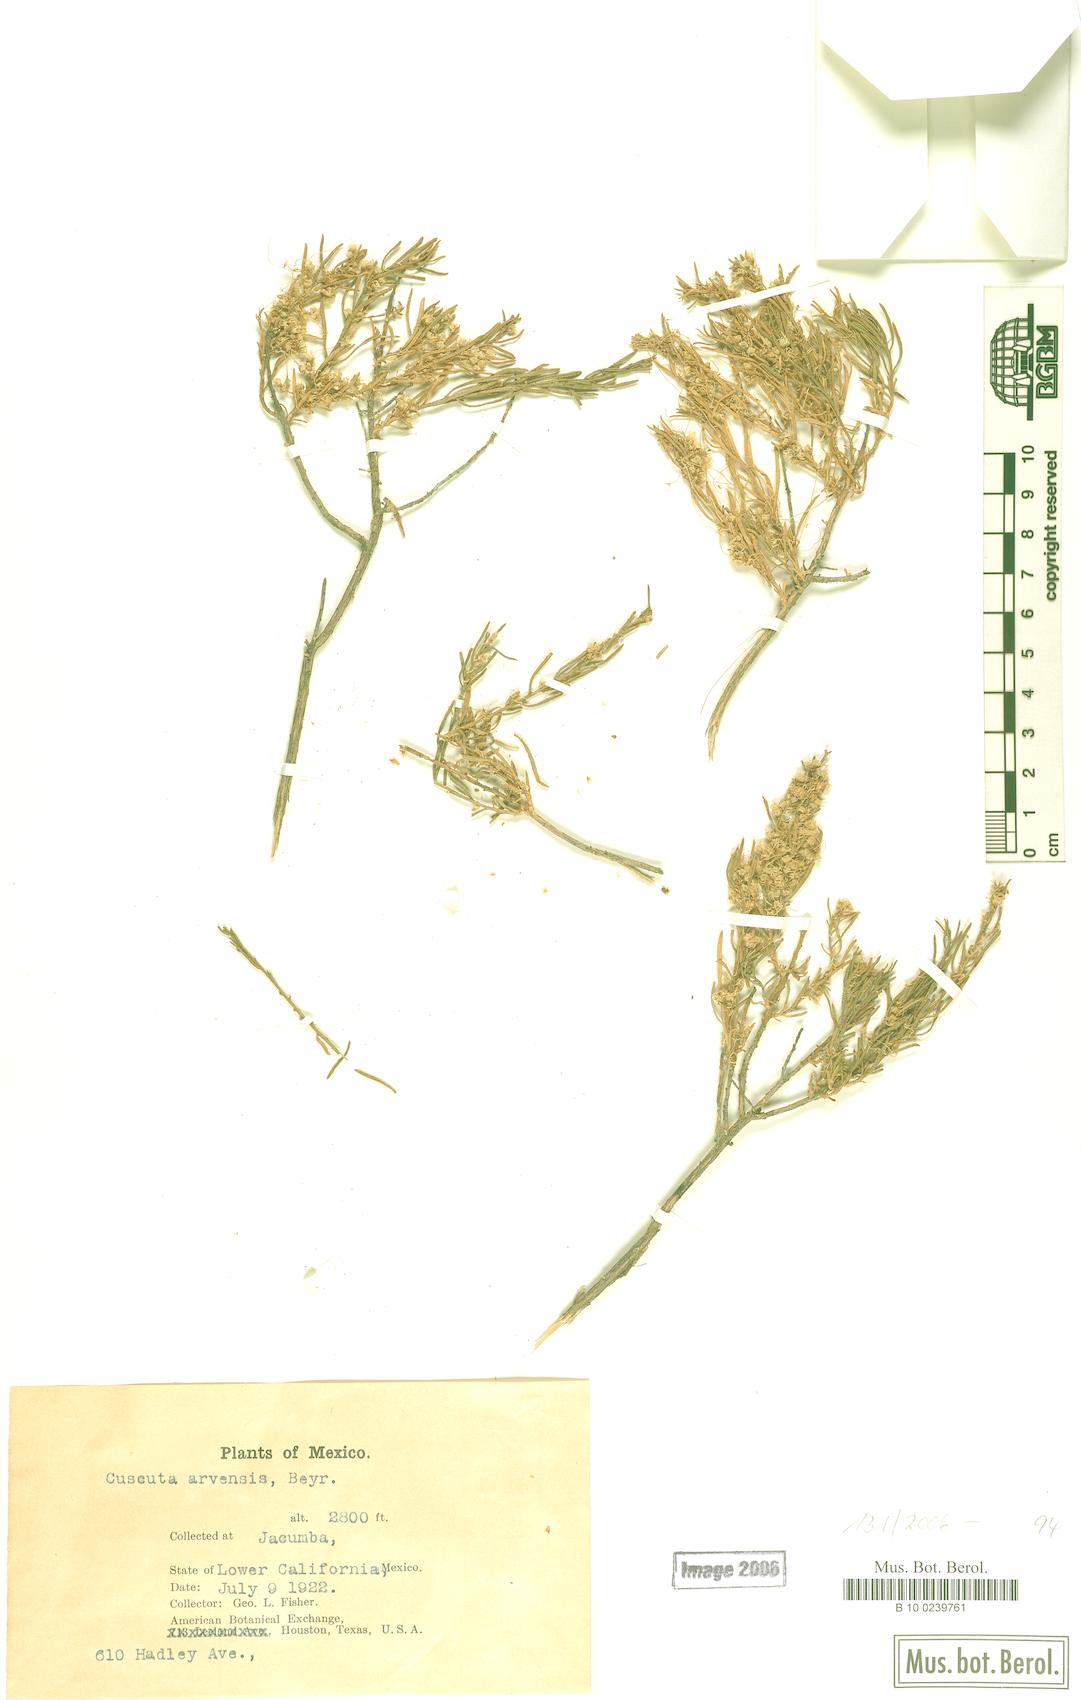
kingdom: Plantae
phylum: Tracheophyta
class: Magnoliopsida
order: Solanales
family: Convolvulaceae
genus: Cuscuta
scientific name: Cuscuta campestris
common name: Yellow dodder
